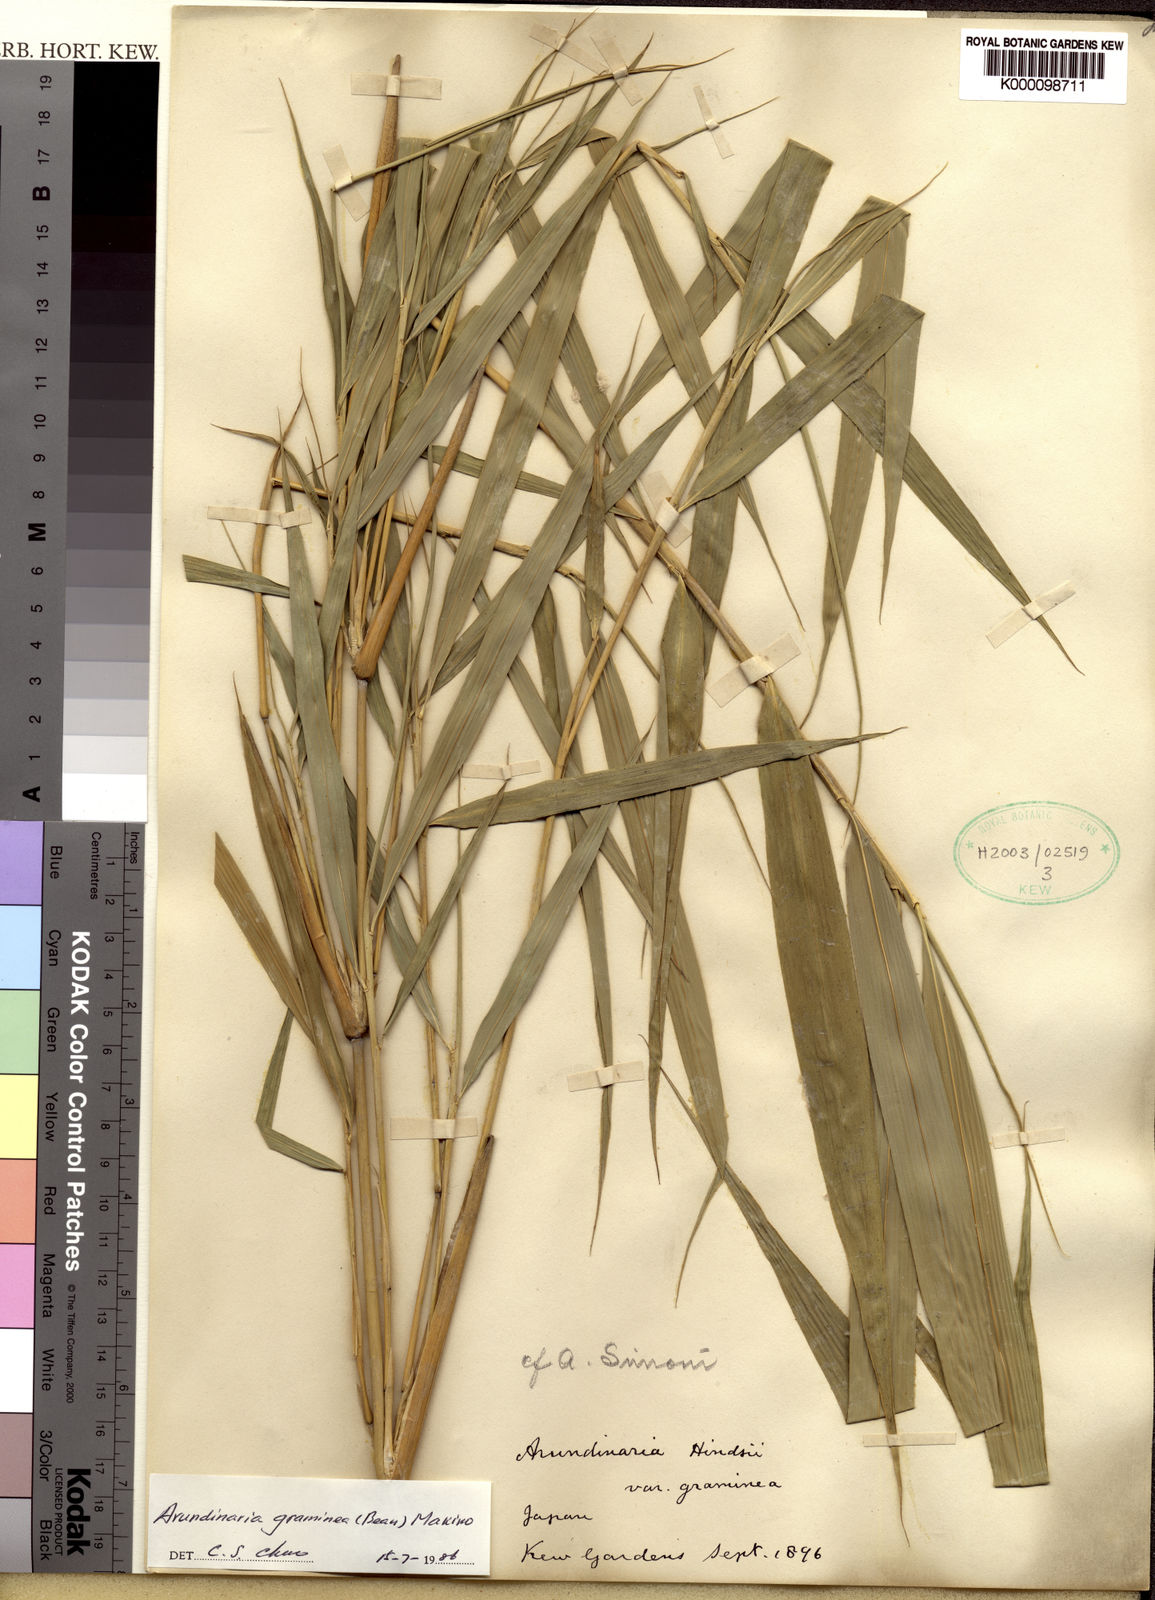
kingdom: Plantae
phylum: Tracheophyta
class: Liliopsida
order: Poales
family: Poaceae
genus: Pleioblastus
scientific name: Pleioblastus gramineus
